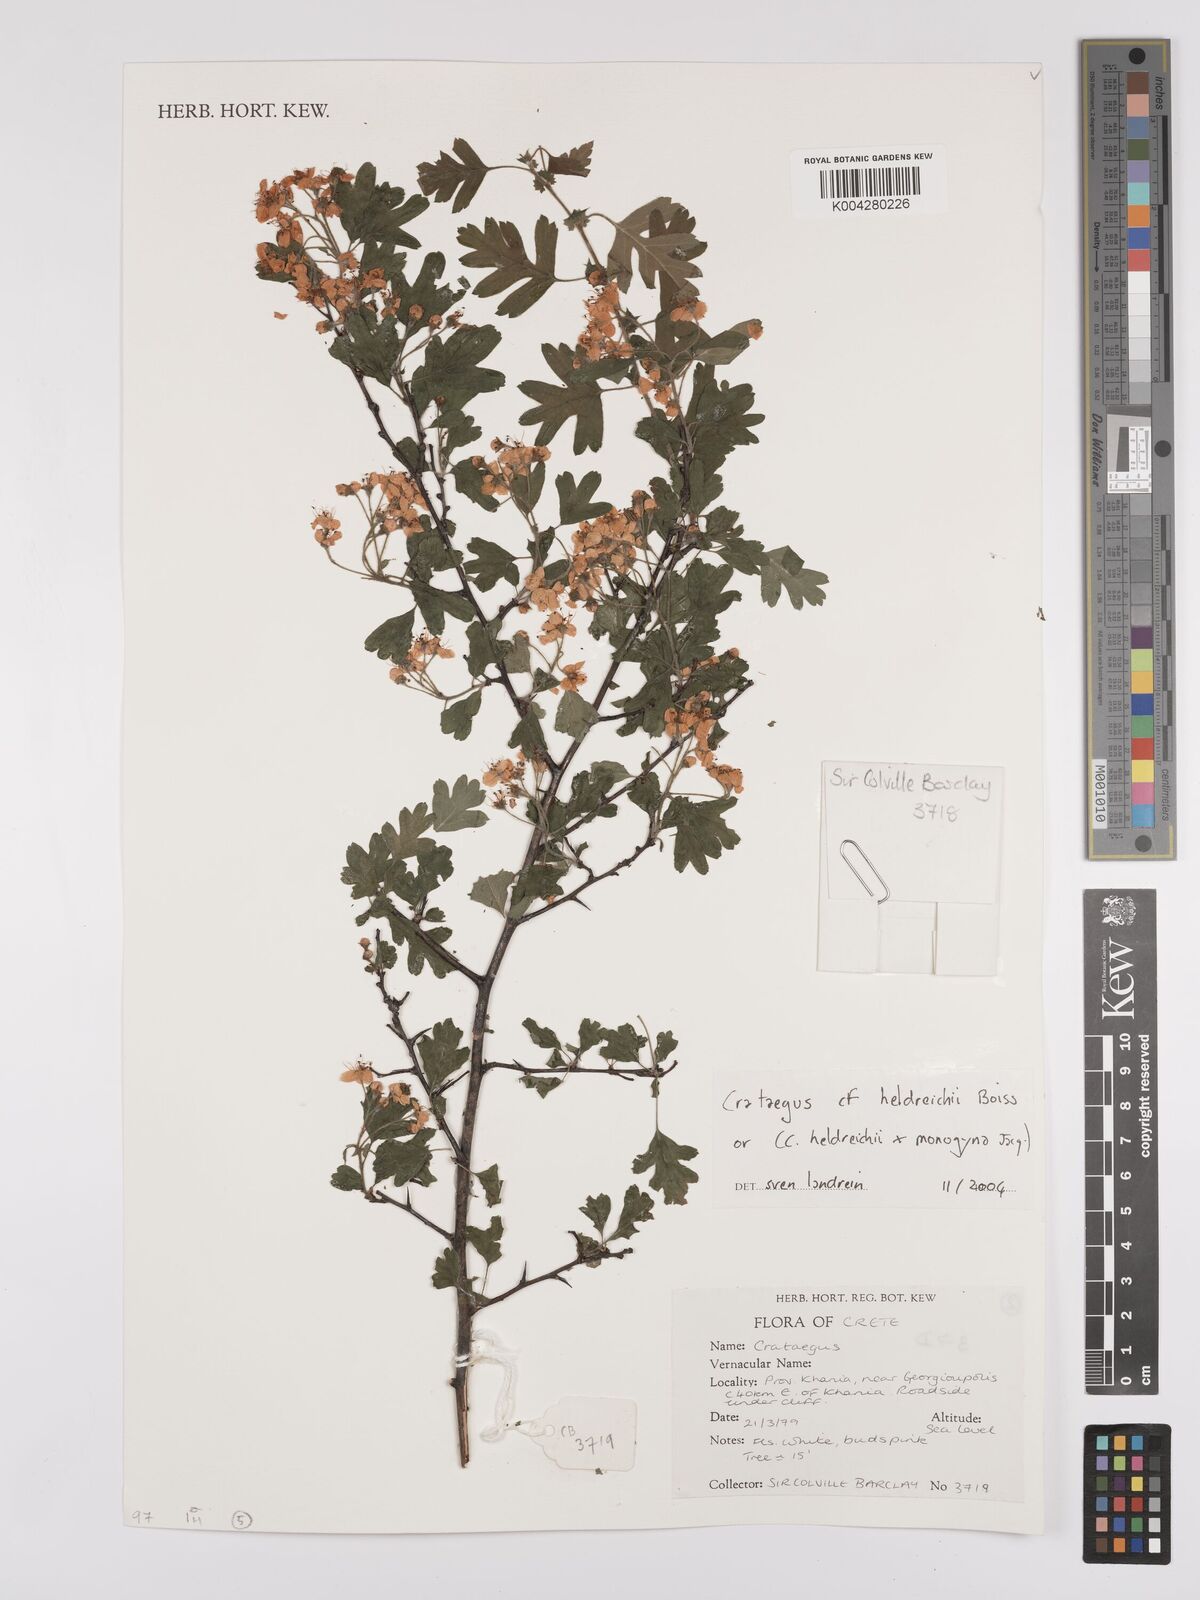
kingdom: Plantae
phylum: Tracheophyta
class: Magnoliopsida
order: Rosales
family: Rosaceae
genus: Crataegus
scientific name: Crataegus heldreichii
